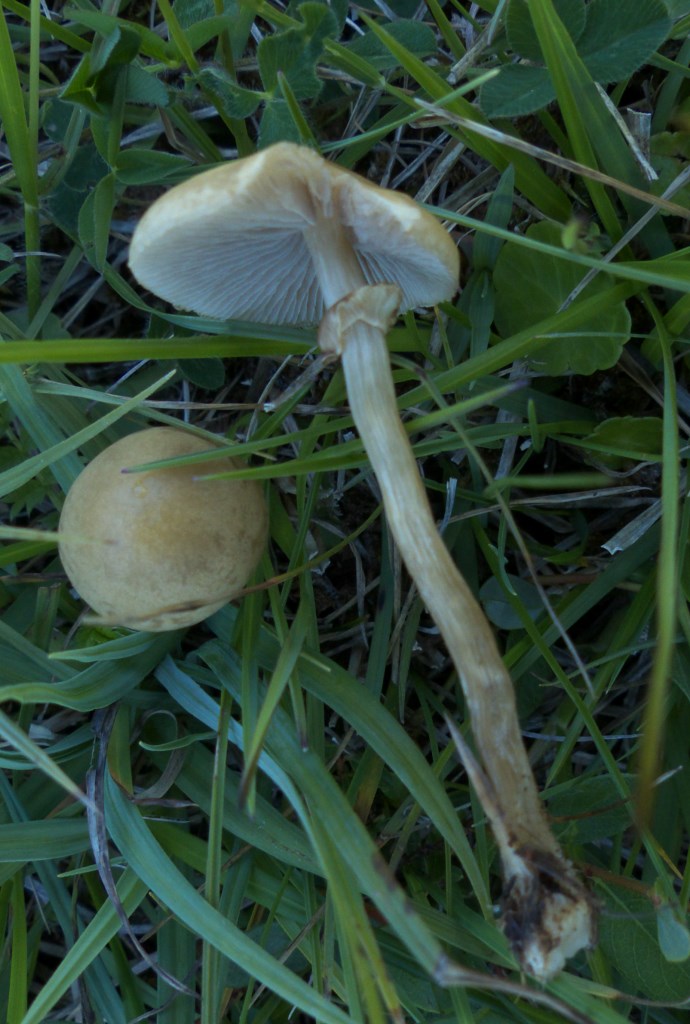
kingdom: Fungi
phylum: Basidiomycota
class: Agaricomycetes
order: Agaricales
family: Strophariaceae
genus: Agrocybe
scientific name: Agrocybe elatella
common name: mose-agerhat
